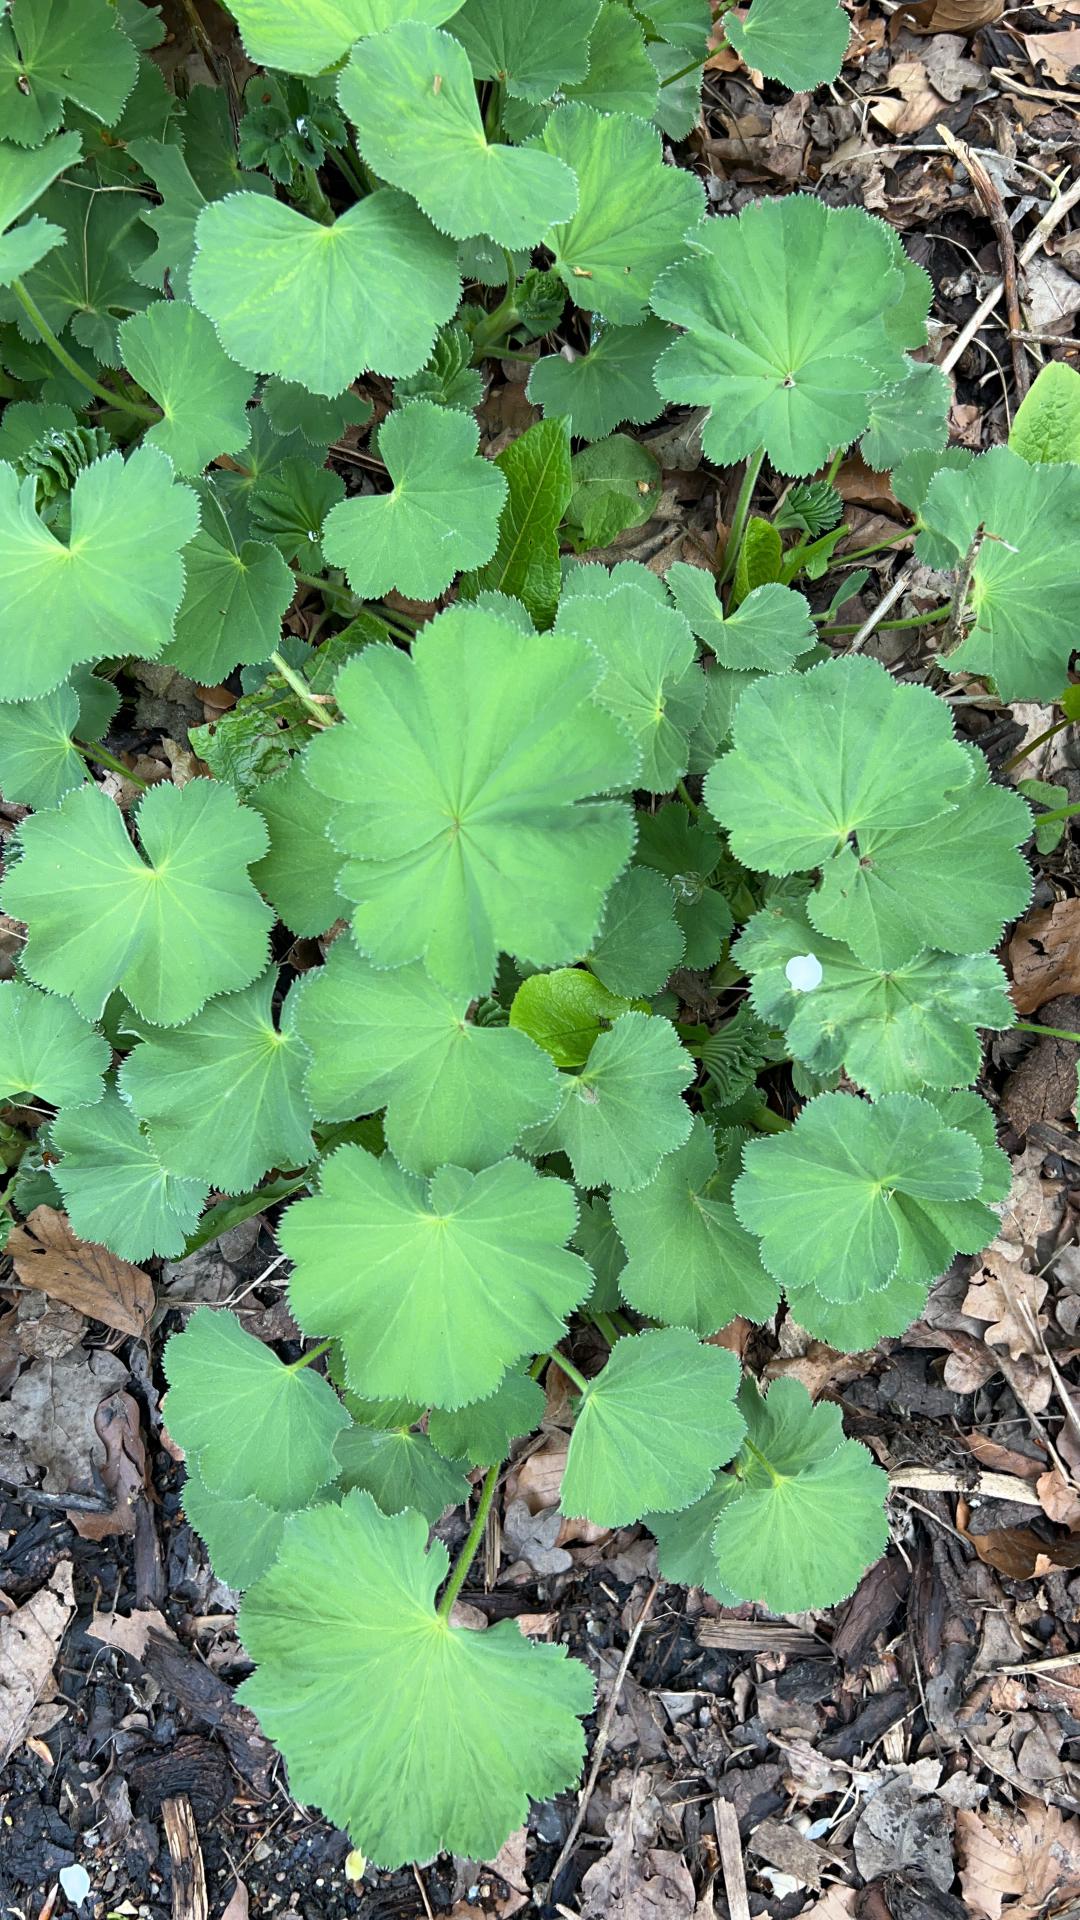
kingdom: Plantae
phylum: Tracheophyta
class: Magnoliopsida
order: Rosales
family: Rosaceae
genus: Alchemilla
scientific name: Alchemilla mollis
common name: Lådden løvefod
